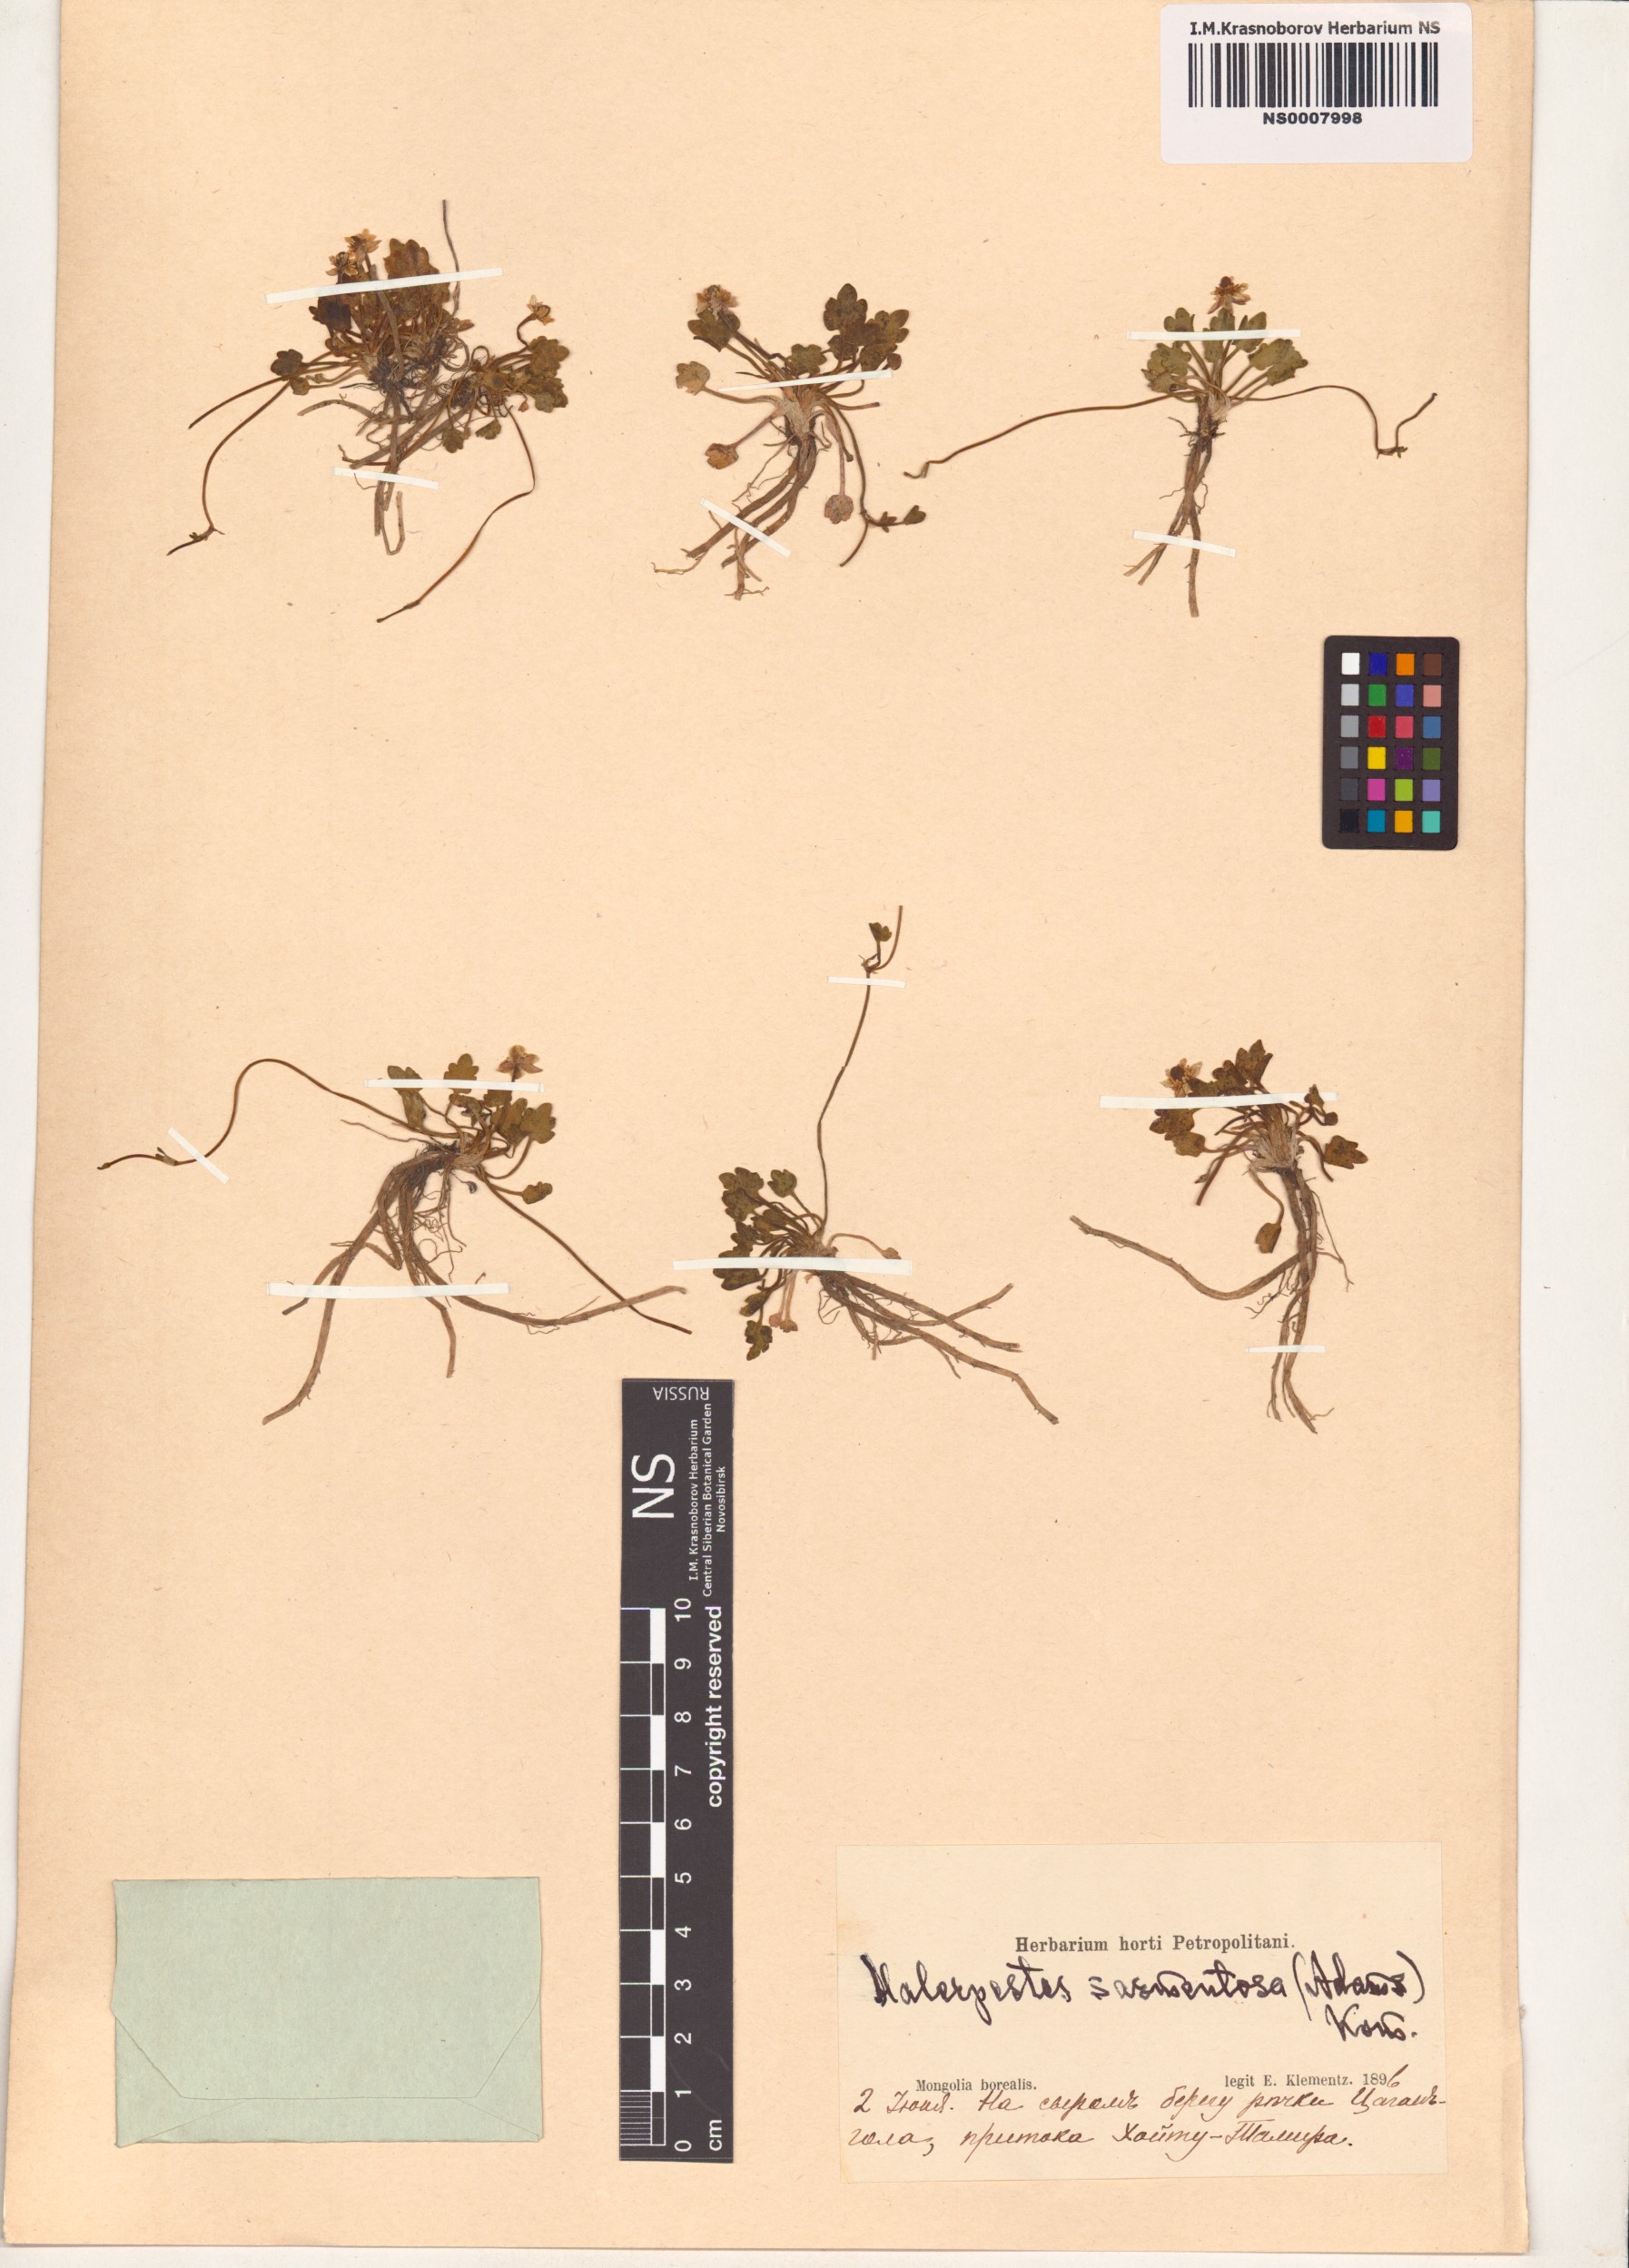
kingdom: Plantae
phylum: Tracheophyta
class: Magnoliopsida
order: Ranunculales
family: Ranunculaceae
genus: Halerpestes
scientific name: Halerpestes sarmentosus
